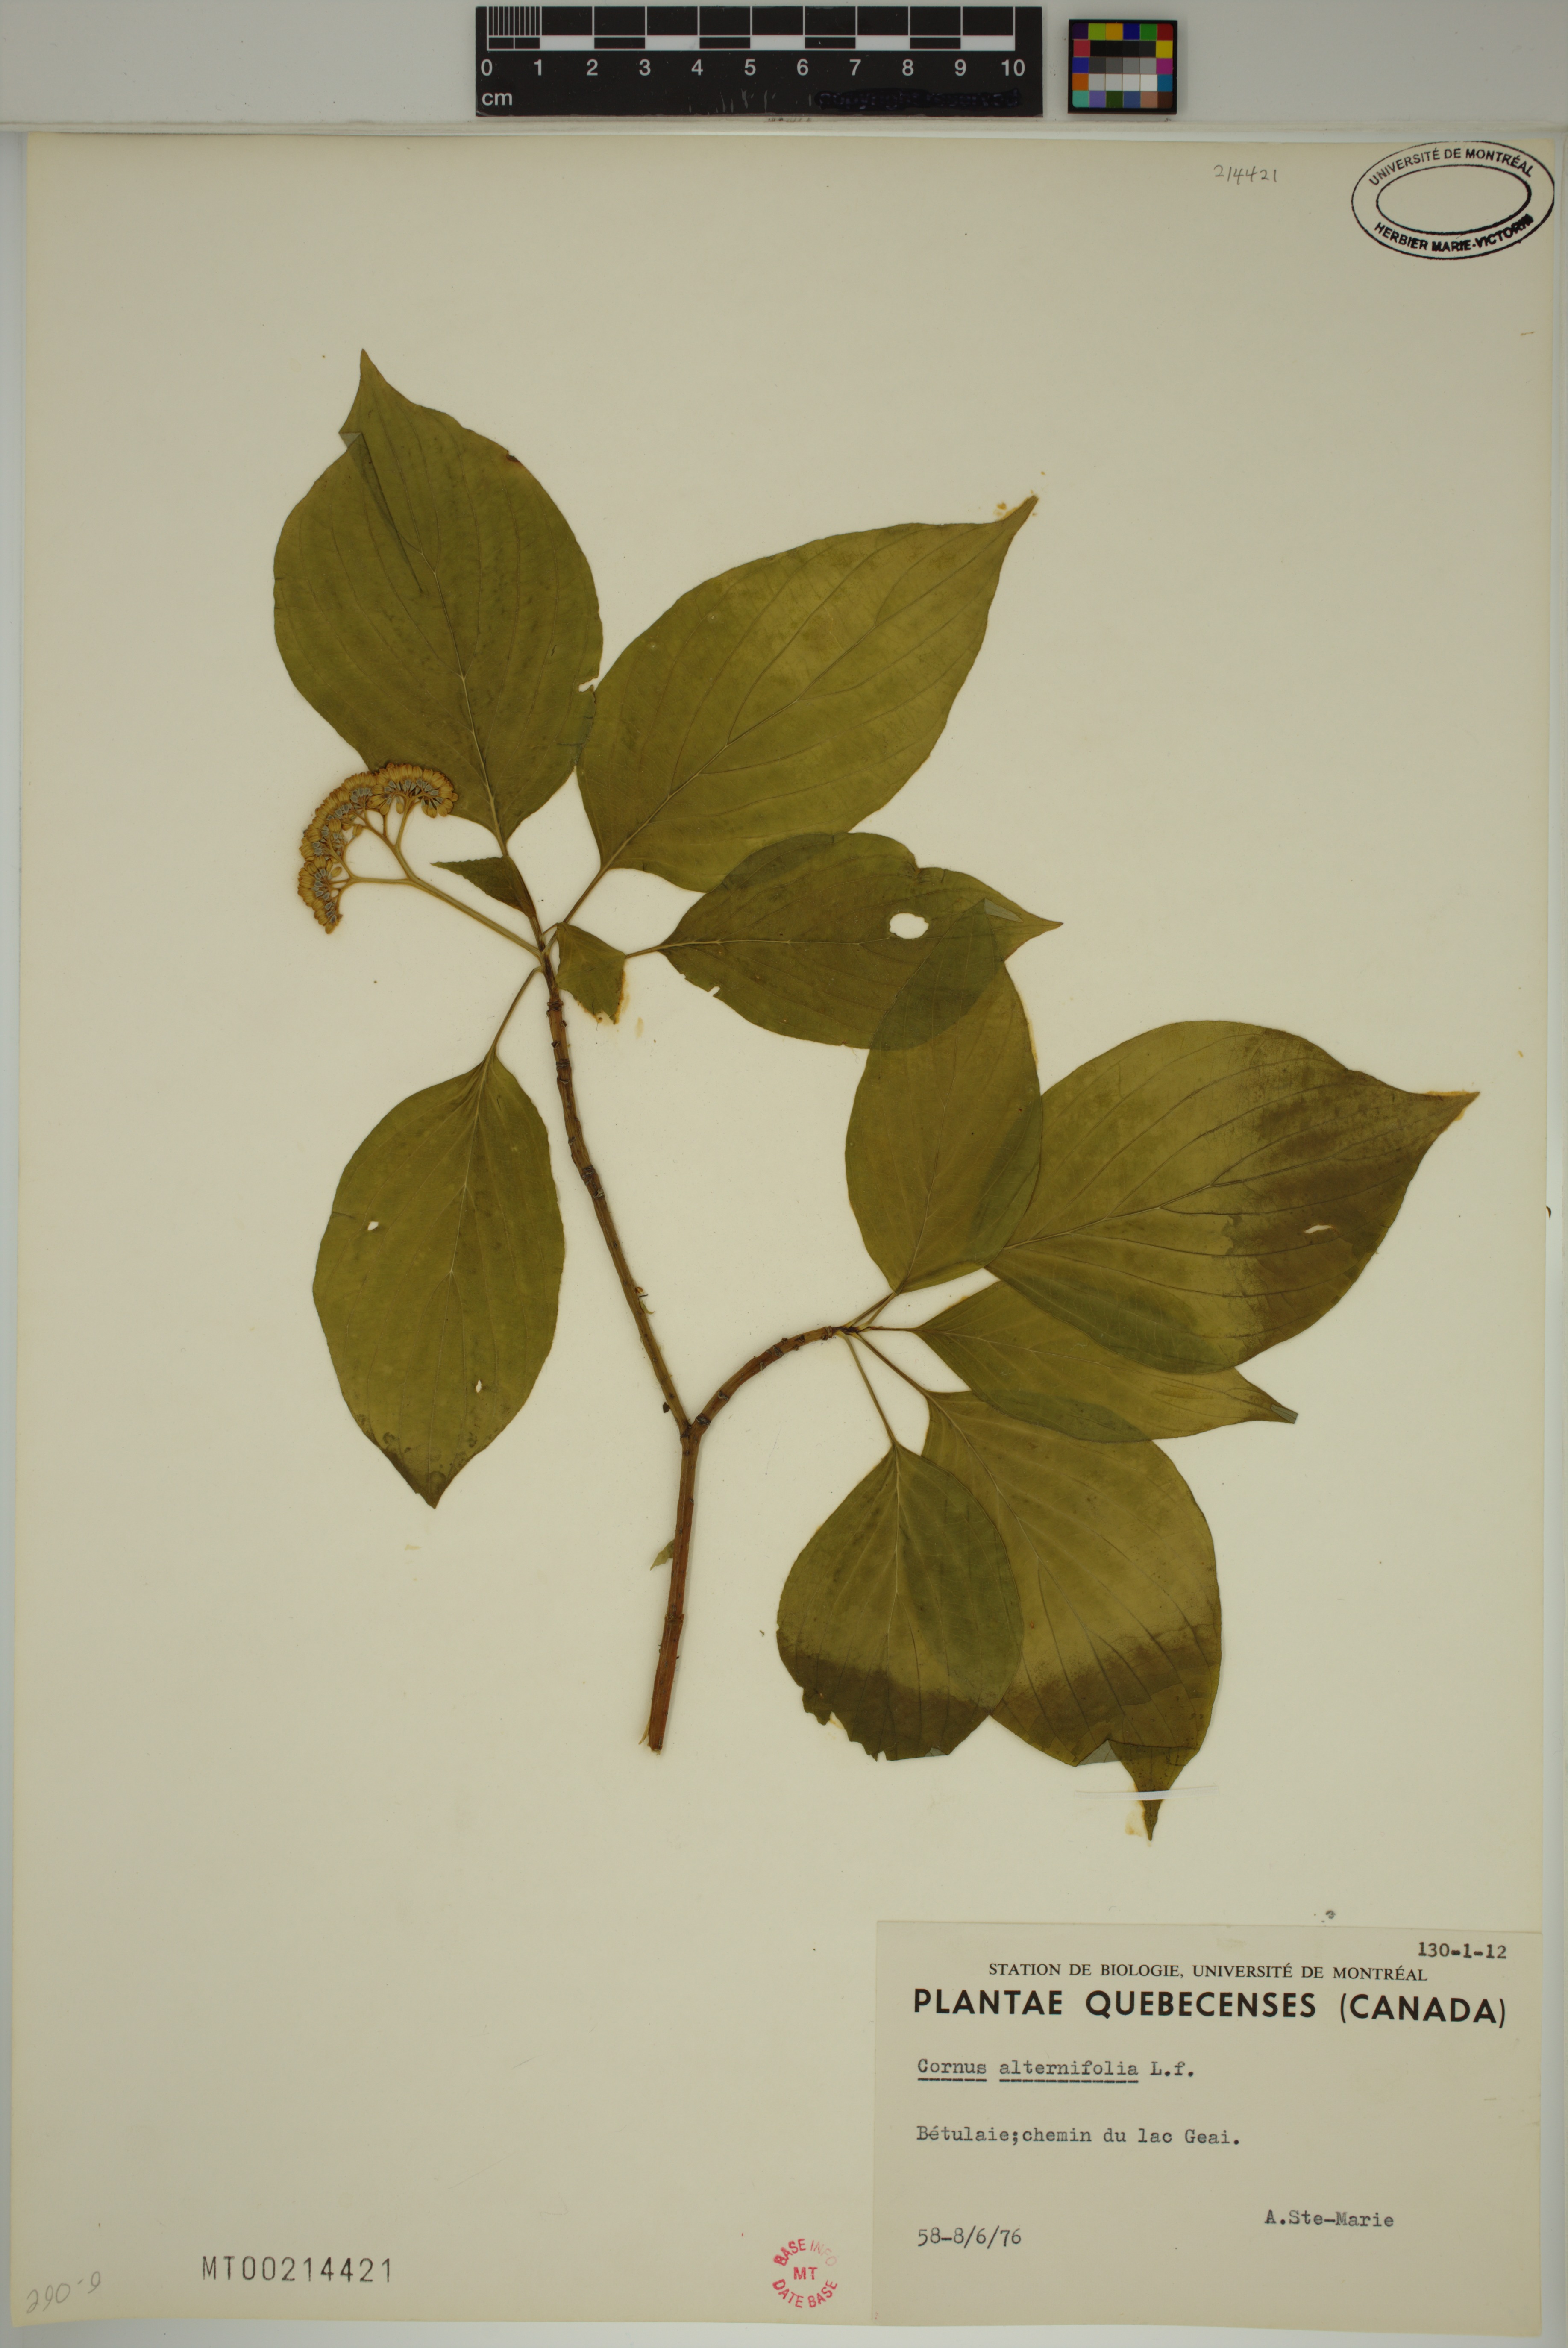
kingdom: Plantae
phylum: Tracheophyta
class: Magnoliopsida
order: Cornales
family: Cornaceae
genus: Cornus
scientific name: Cornus alternifolia
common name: Pagoda dogwood
